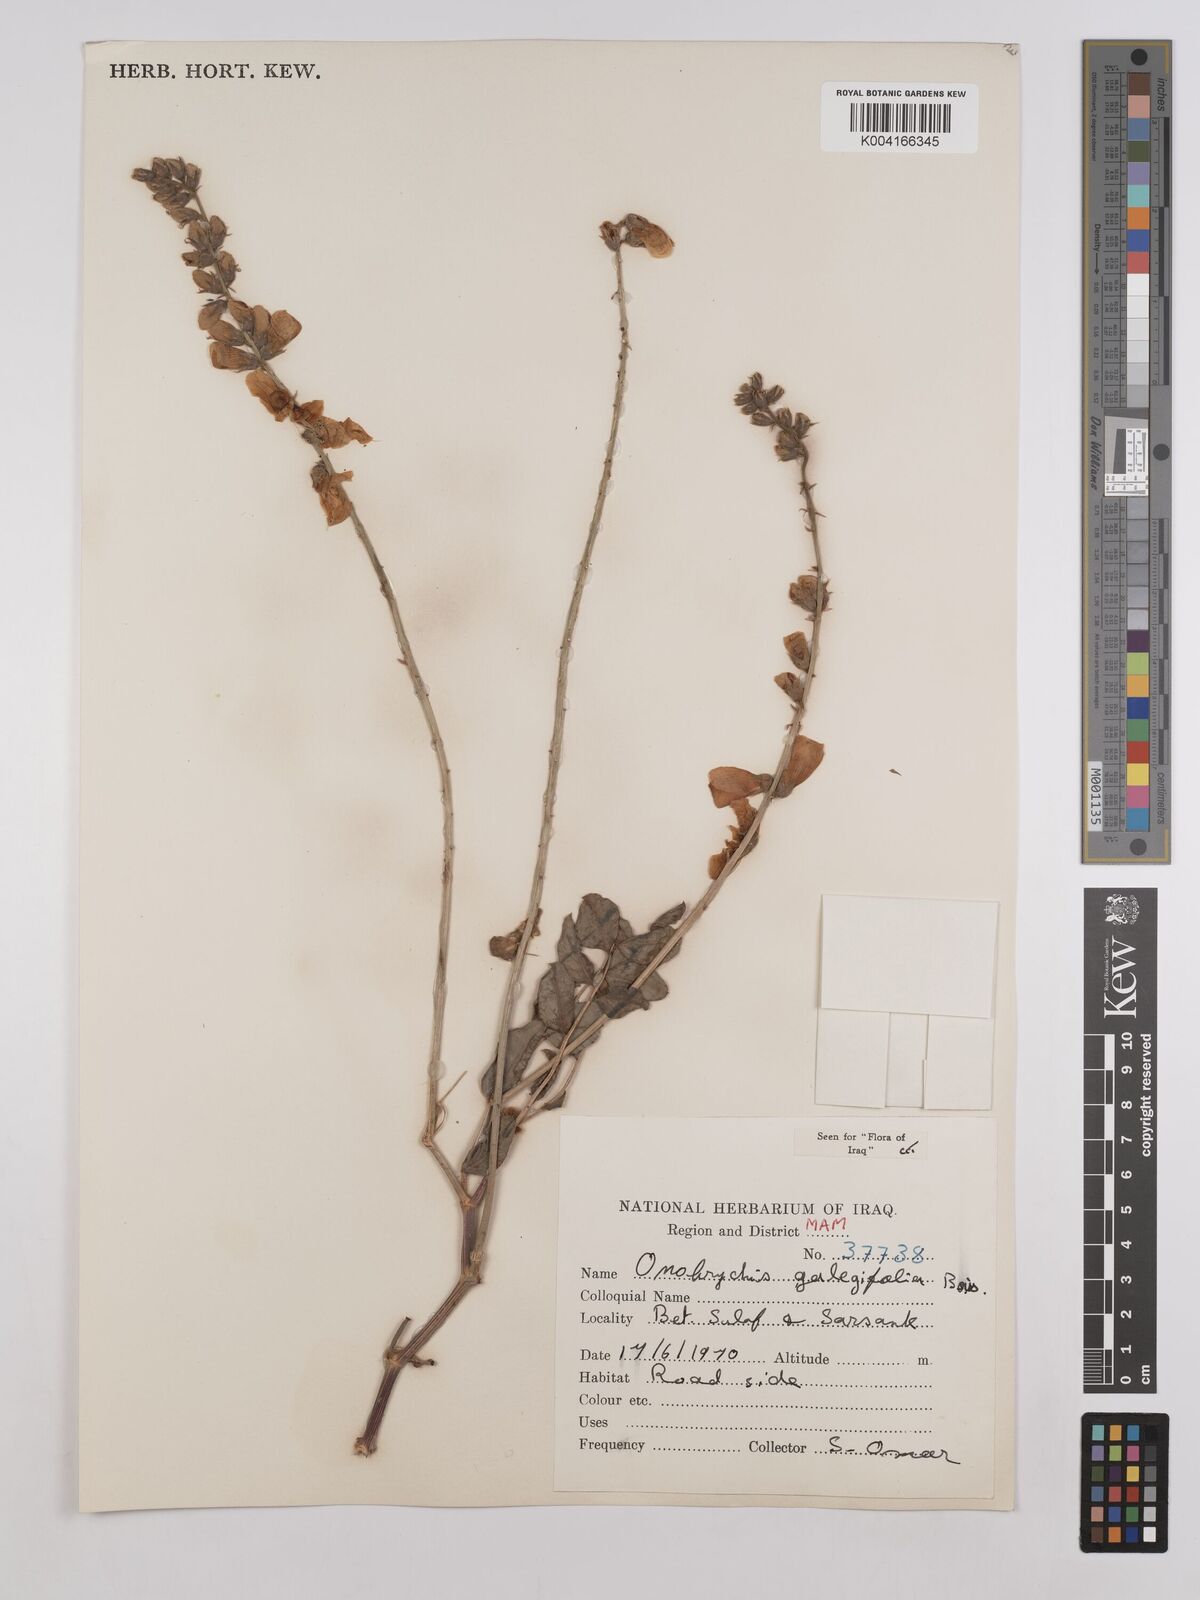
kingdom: Plantae
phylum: Tracheophyta
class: Magnoliopsida
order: Fabales
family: Fabaceae
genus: Onobrychis
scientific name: Onobrychis galegifolia
